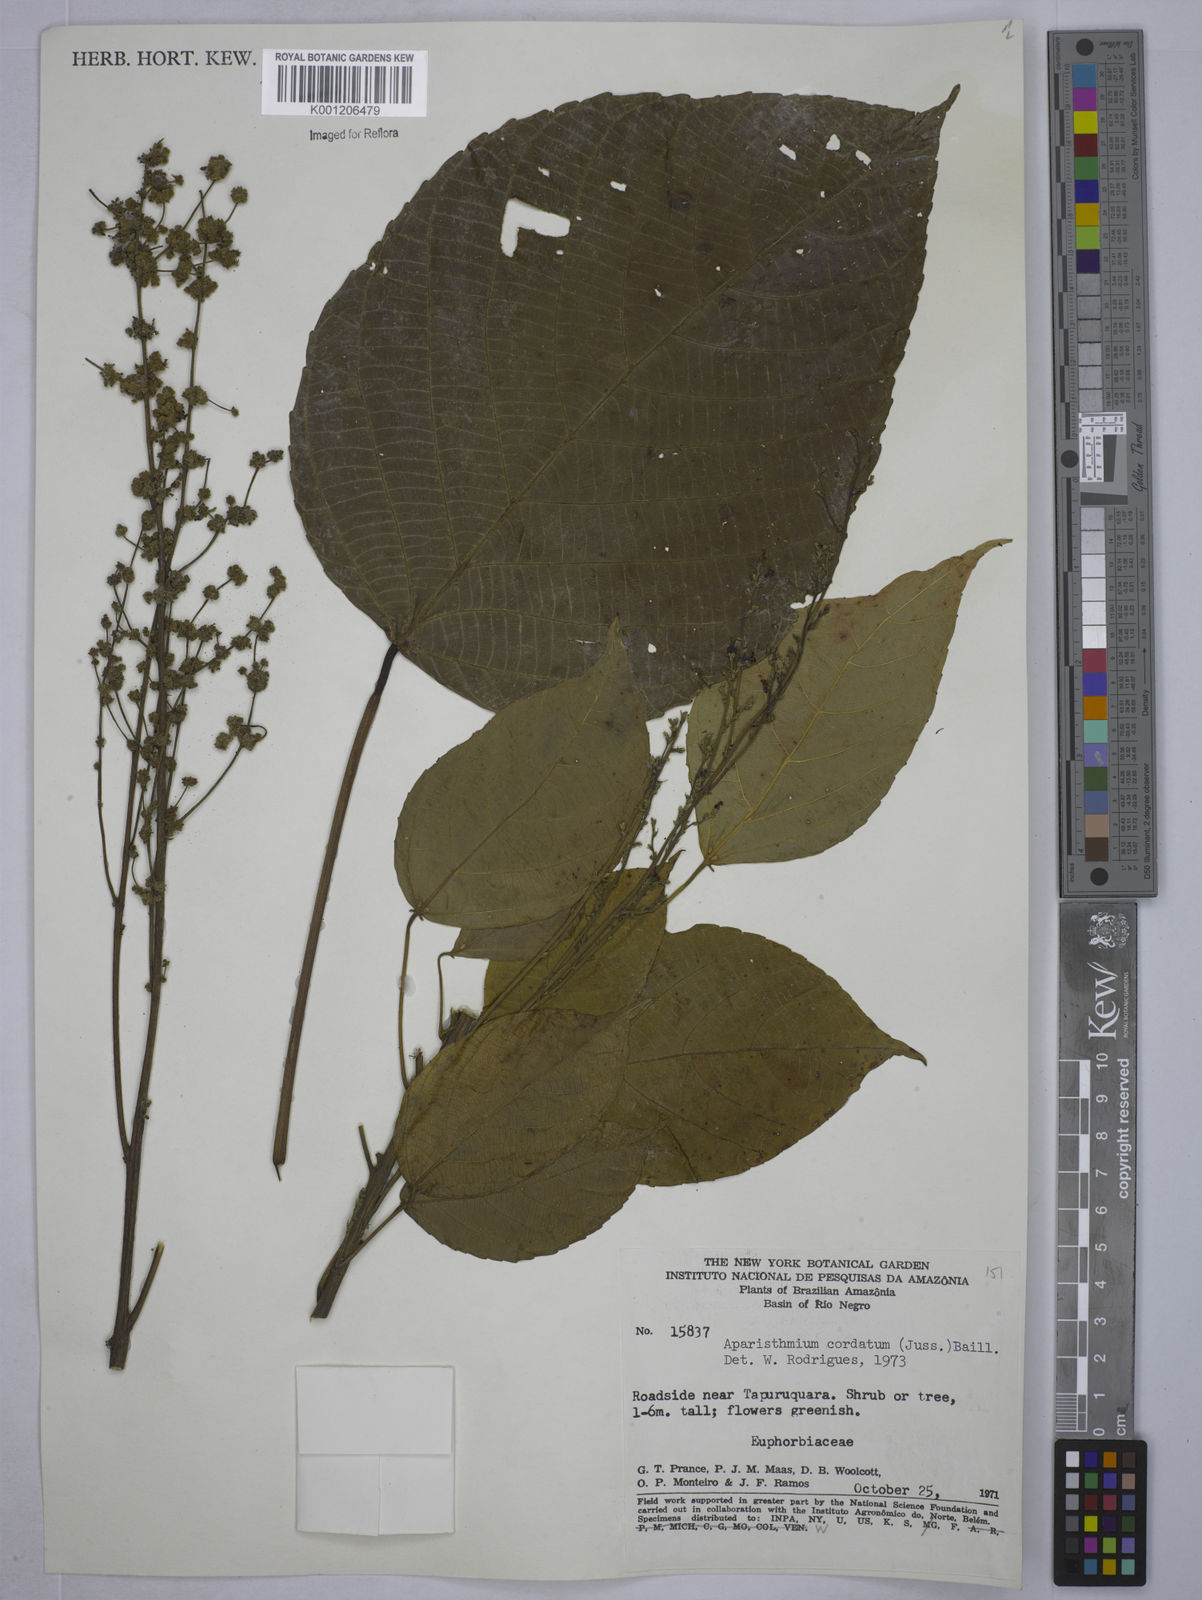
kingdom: Plantae
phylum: Tracheophyta
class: Magnoliopsida
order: Malpighiales
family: Euphorbiaceae
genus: Aparisthmium
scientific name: Aparisthmium cordatum
